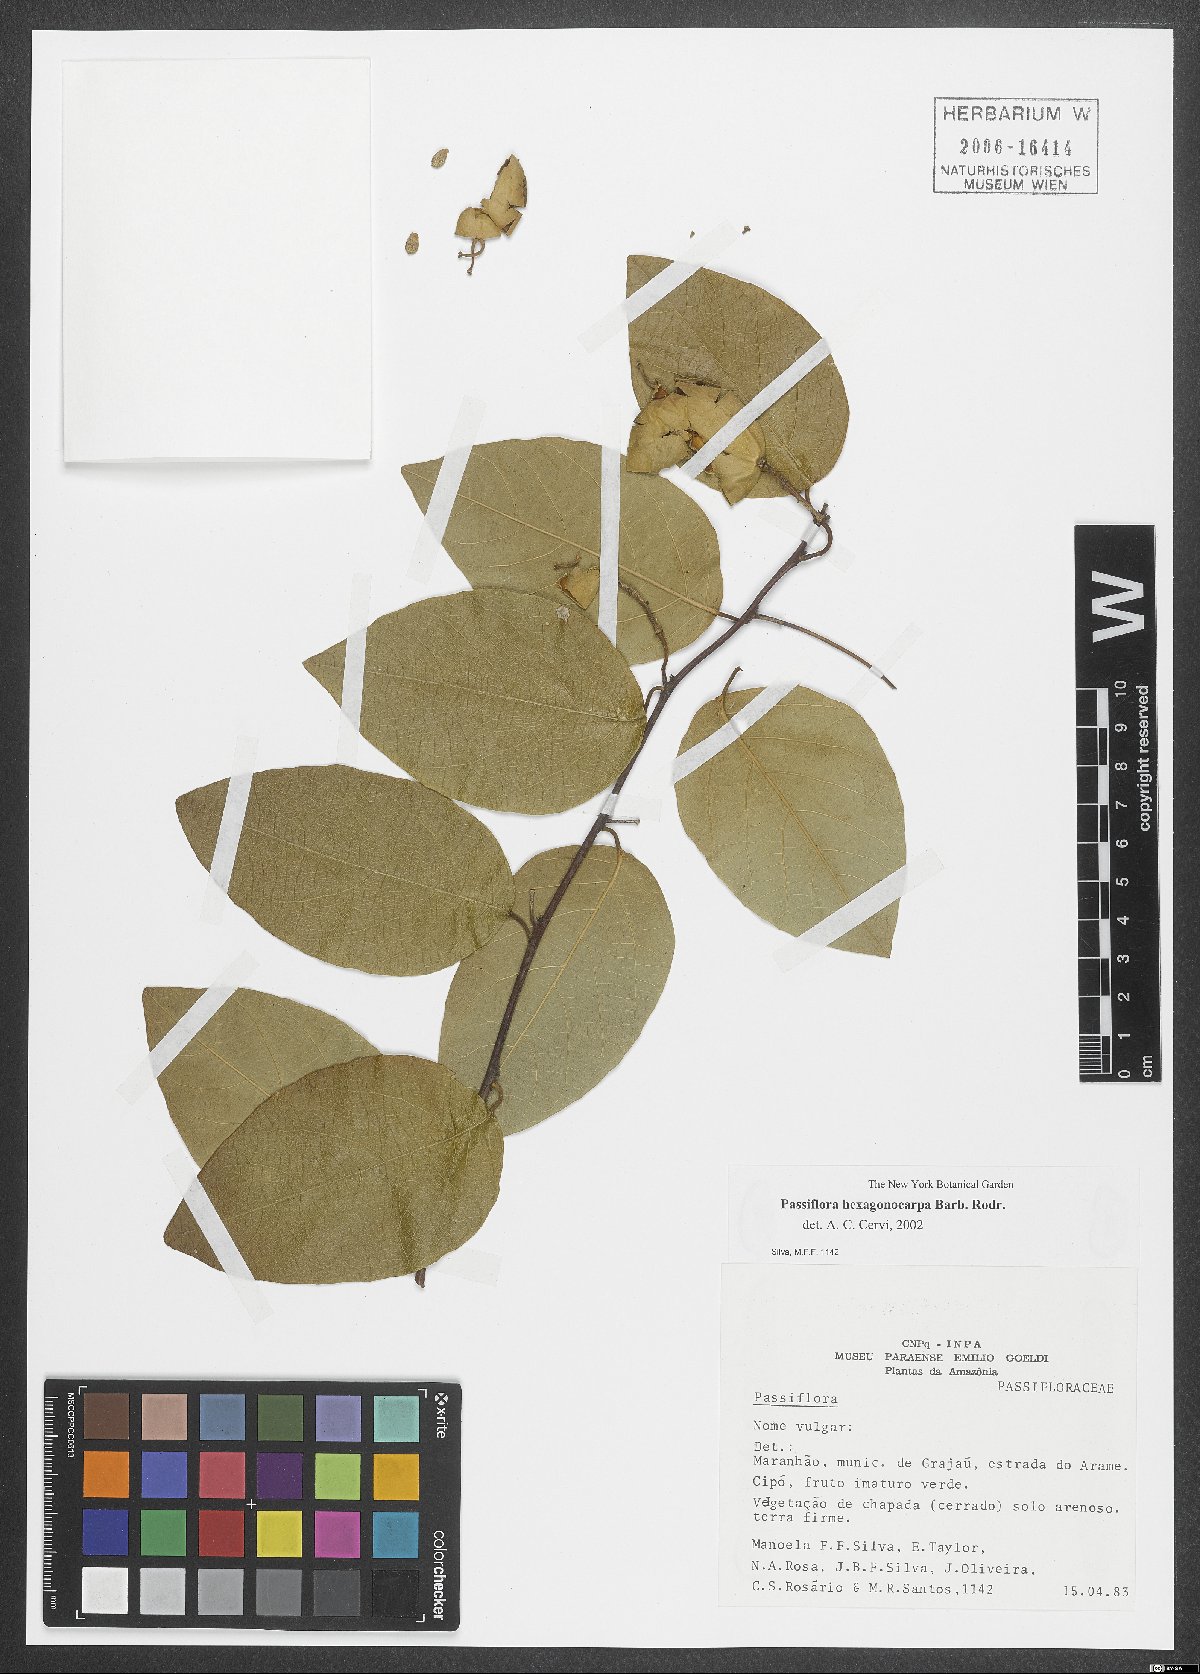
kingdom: Plantae
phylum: Tracheophyta
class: Magnoliopsida
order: Malpighiales
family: Passifloraceae
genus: Passiflora
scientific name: Passiflora hexagonocarpa
